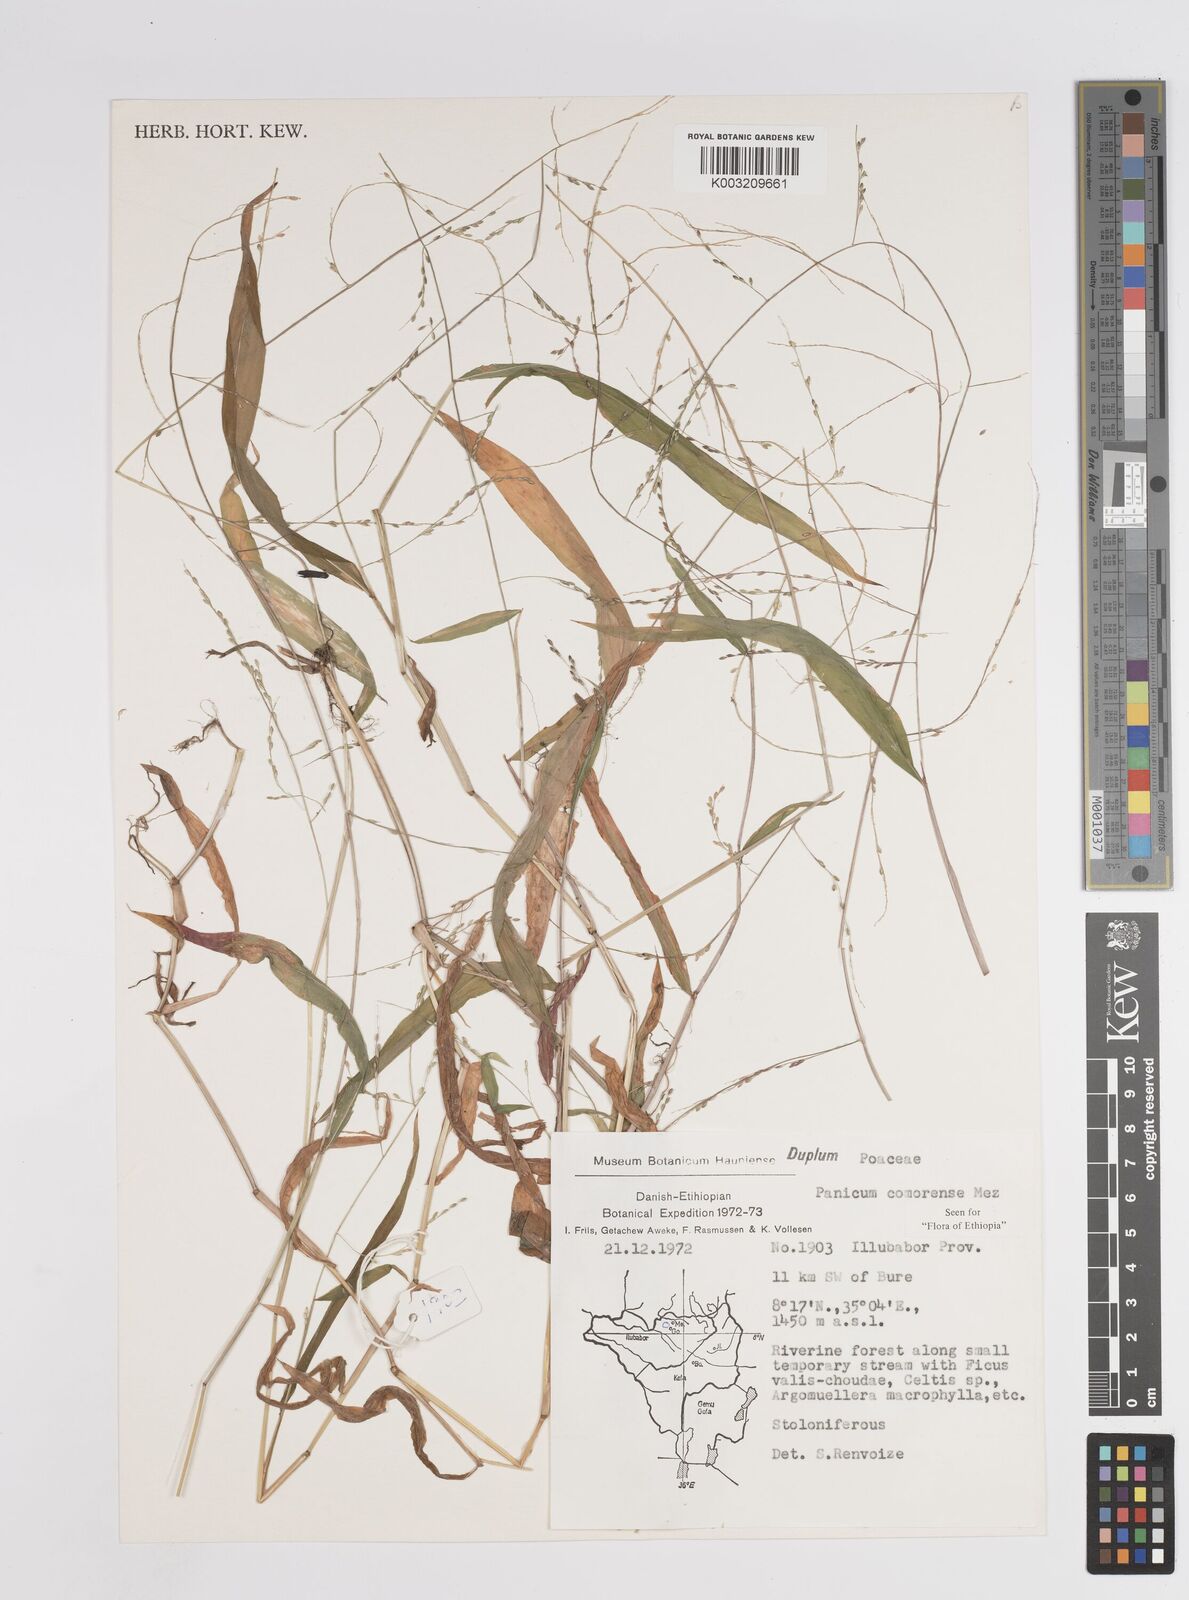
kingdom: Plantae
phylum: Tracheophyta
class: Liliopsida
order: Poales
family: Poaceae
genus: Panicum
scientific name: Panicum comorense
